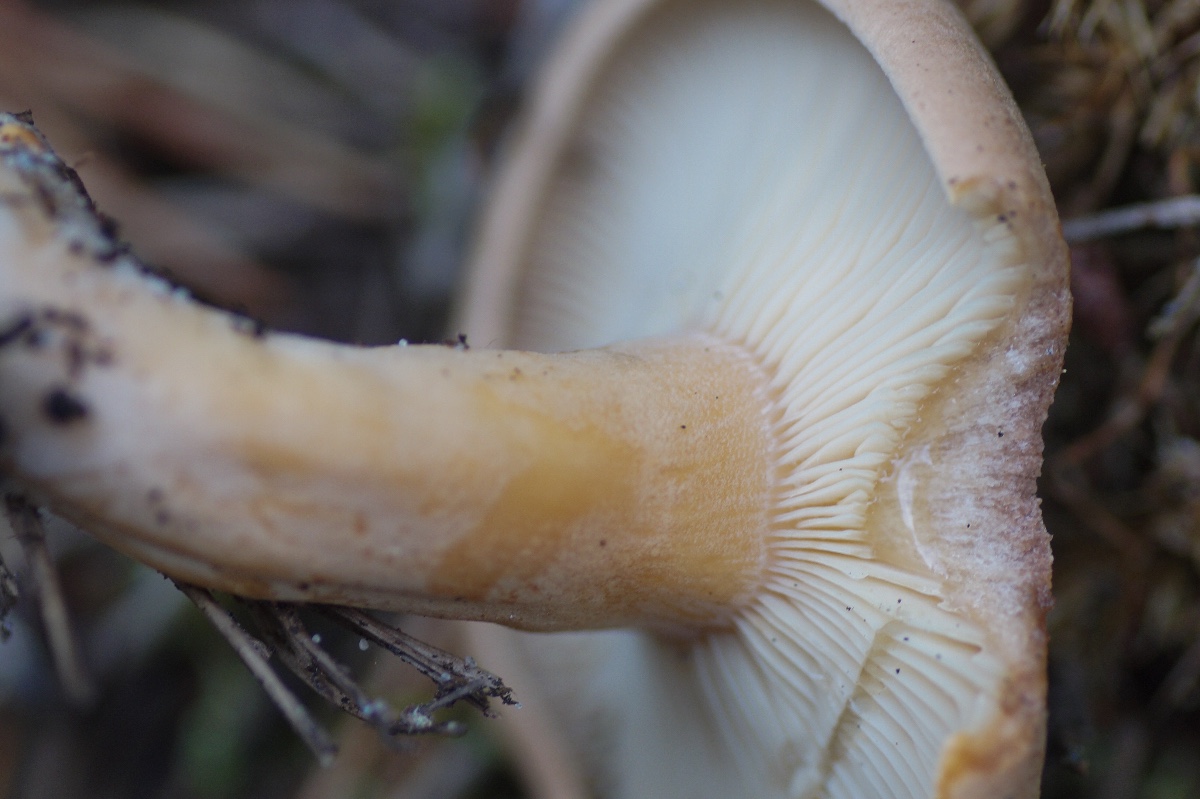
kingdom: Fungi
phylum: Basidiomycota
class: Agaricomycetes
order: Russulales
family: Russulaceae
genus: Lactarius
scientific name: Lactarius helvus
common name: mose-mælkehat
